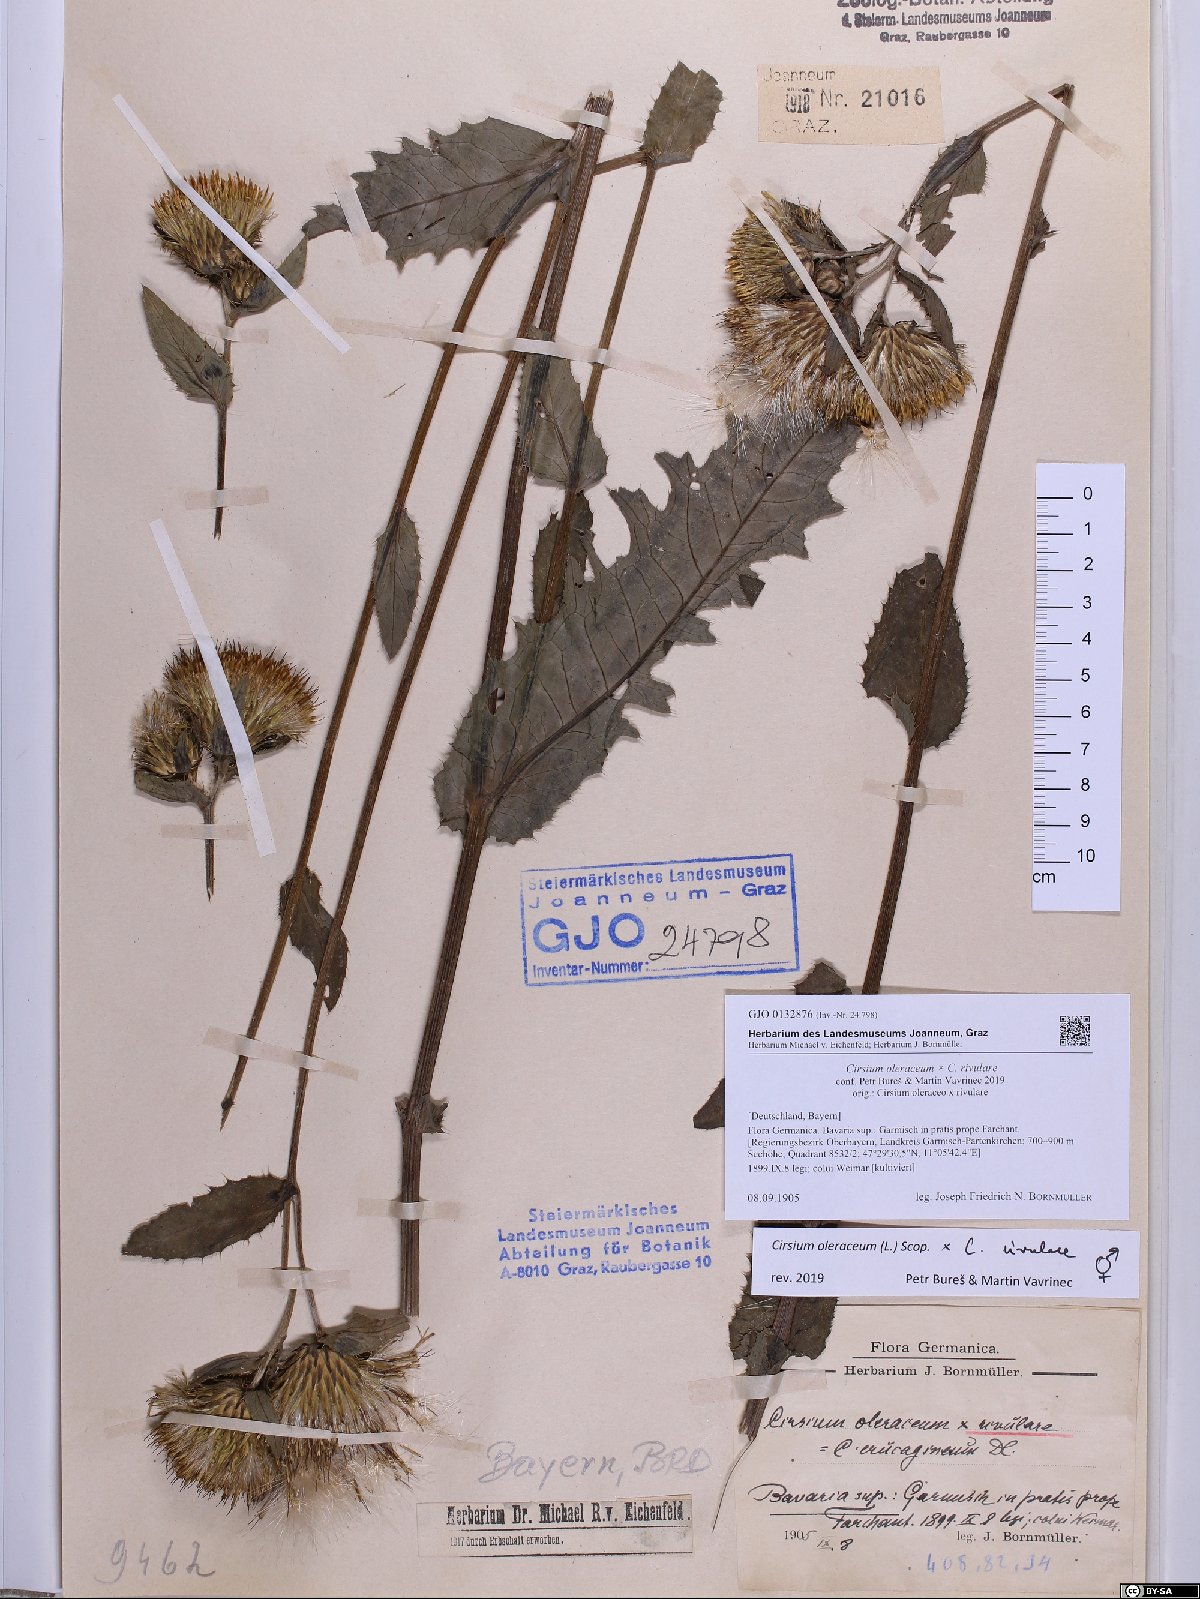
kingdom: Plantae
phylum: Tracheophyta
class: Magnoliopsida
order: Asterales
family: Asteraceae
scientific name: Asteraceae
